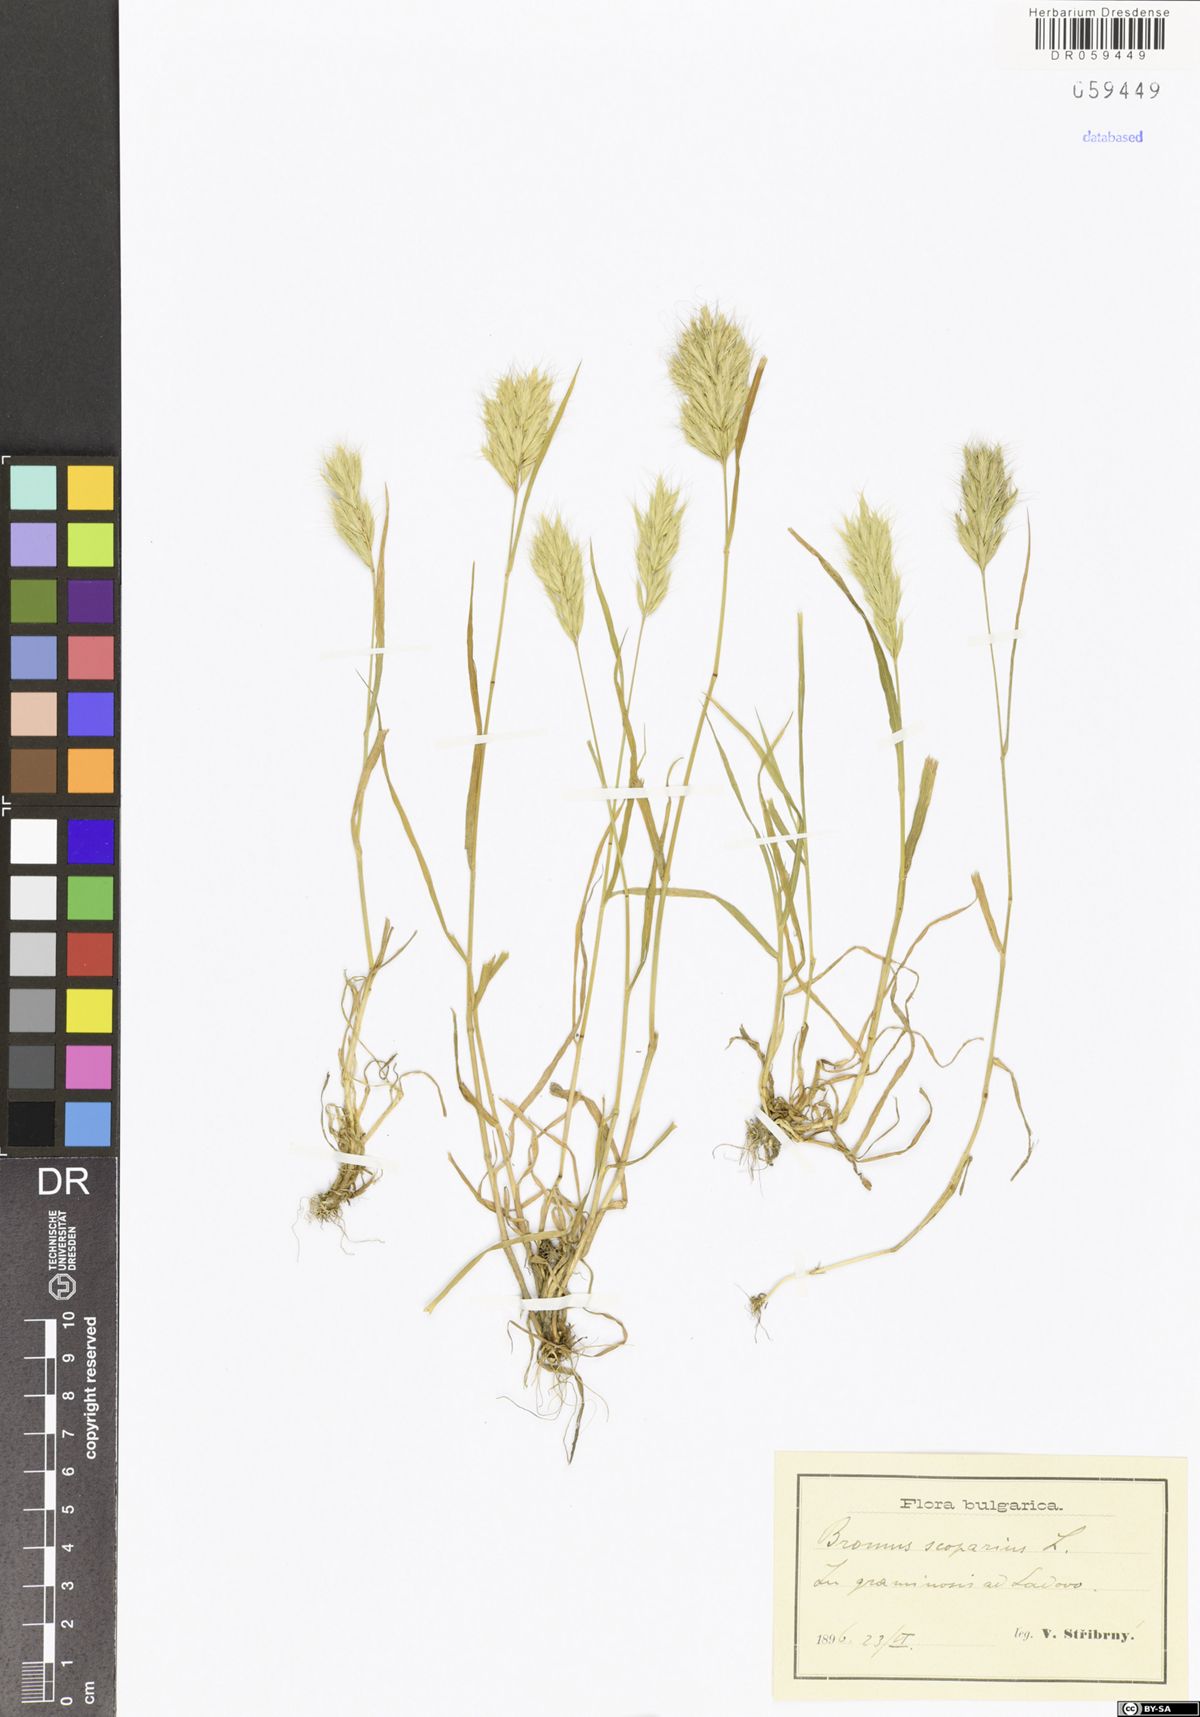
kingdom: Plantae
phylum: Tracheophyta
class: Liliopsida
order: Poales
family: Poaceae
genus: Bromus
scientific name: Bromus scoparius
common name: Broom brome
